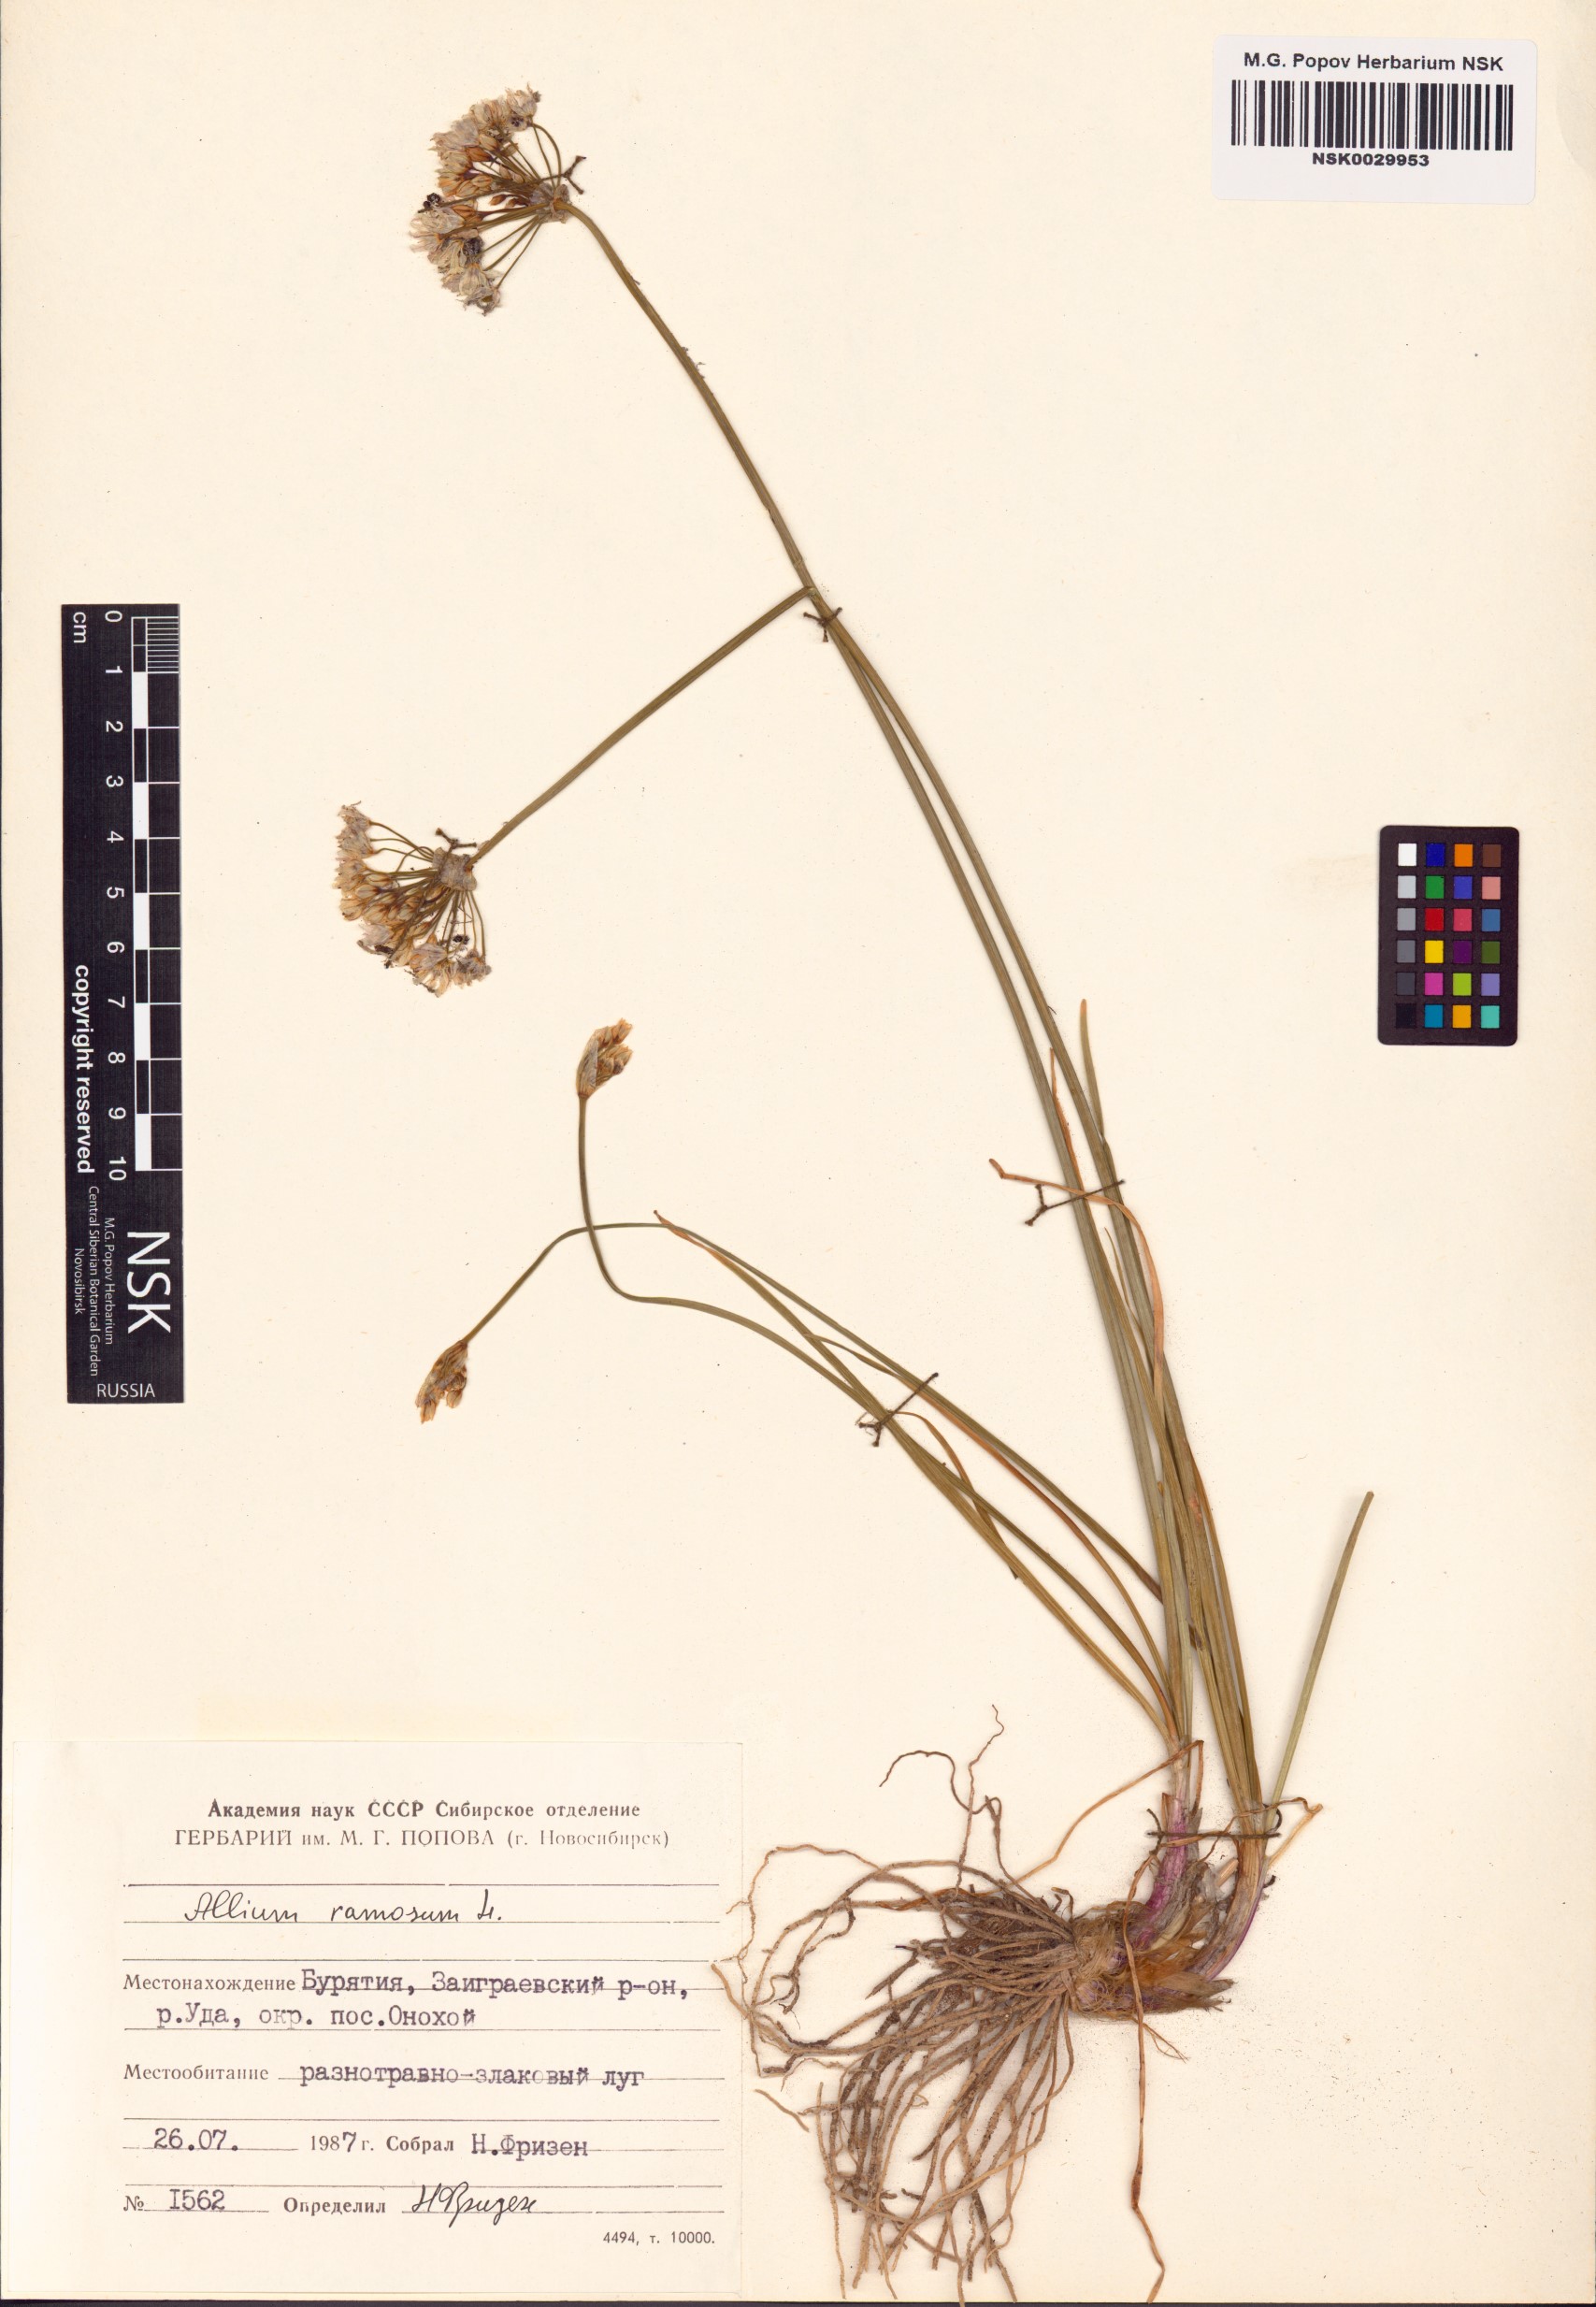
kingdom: Plantae
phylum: Tracheophyta
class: Liliopsida
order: Asparagales
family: Amaryllidaceae
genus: Allium
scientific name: Allium ramosum
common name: Fragrant garlic
